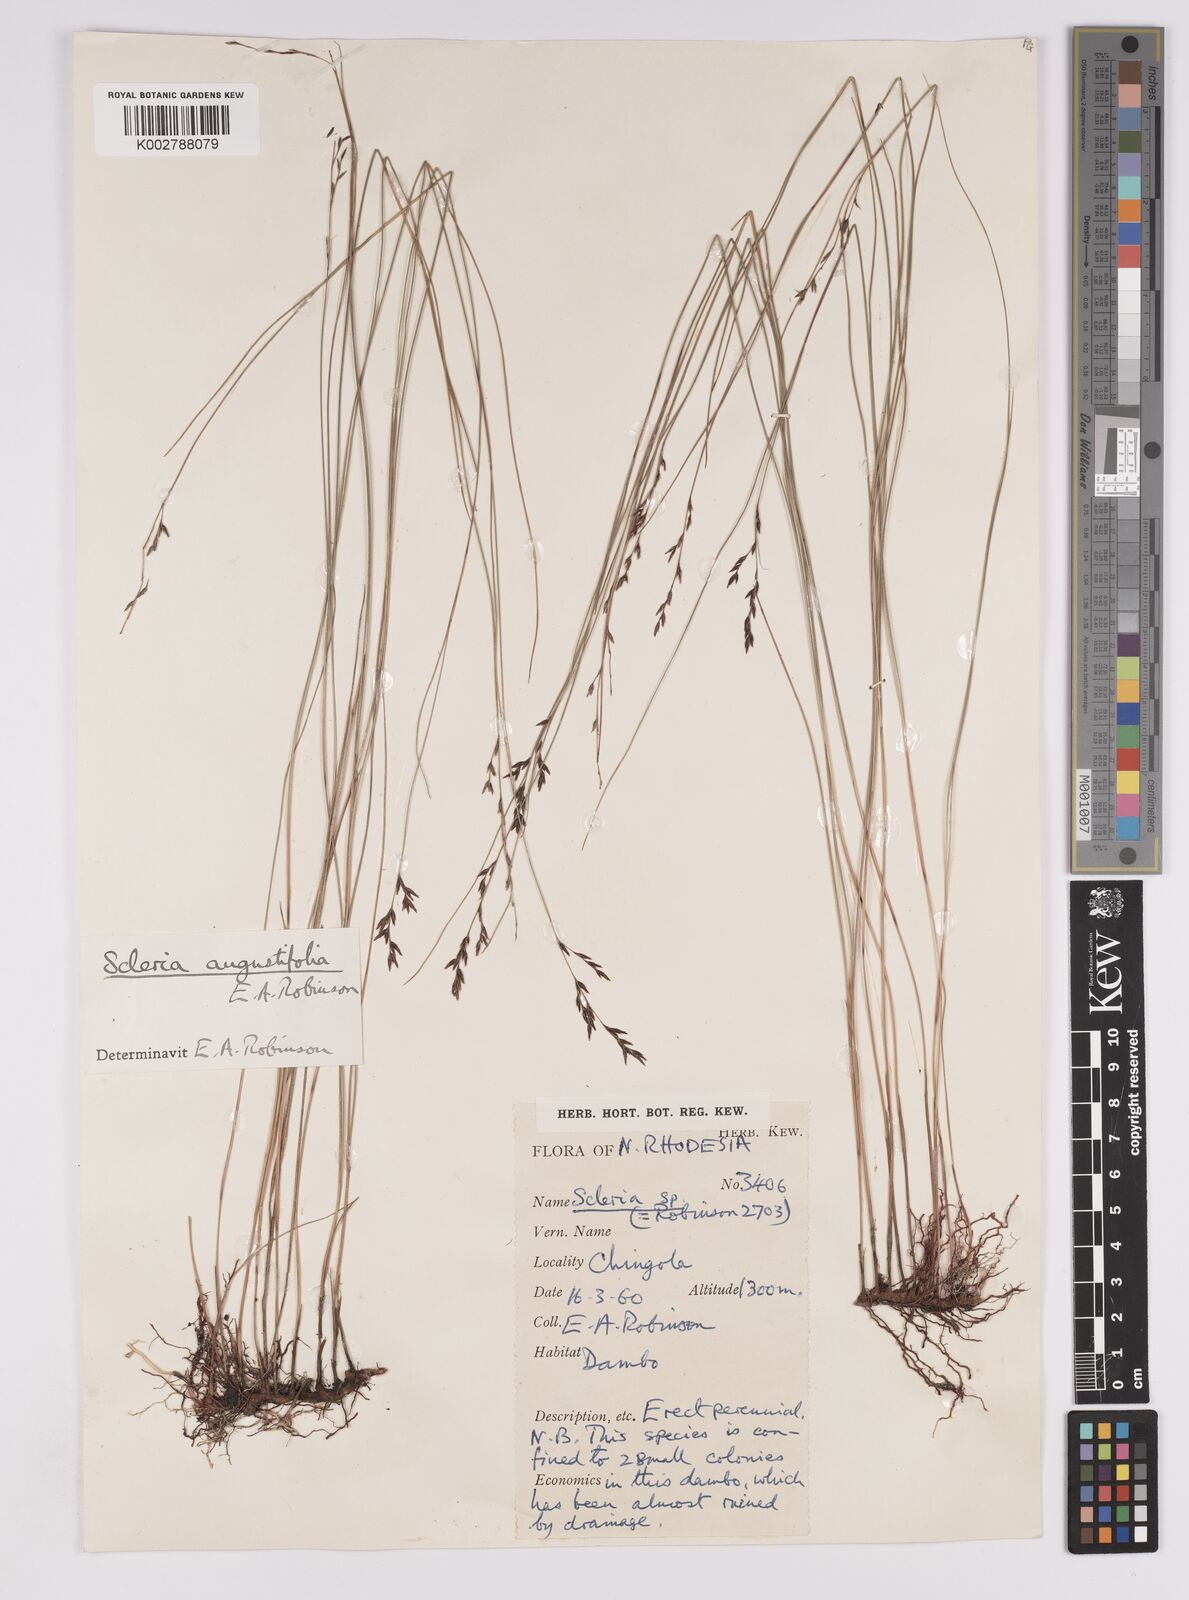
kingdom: Plantae
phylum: Tracheophyta
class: Liliopsida
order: Poales
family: Cyperaceae
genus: Scleria
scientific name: Scleria angustifolia
